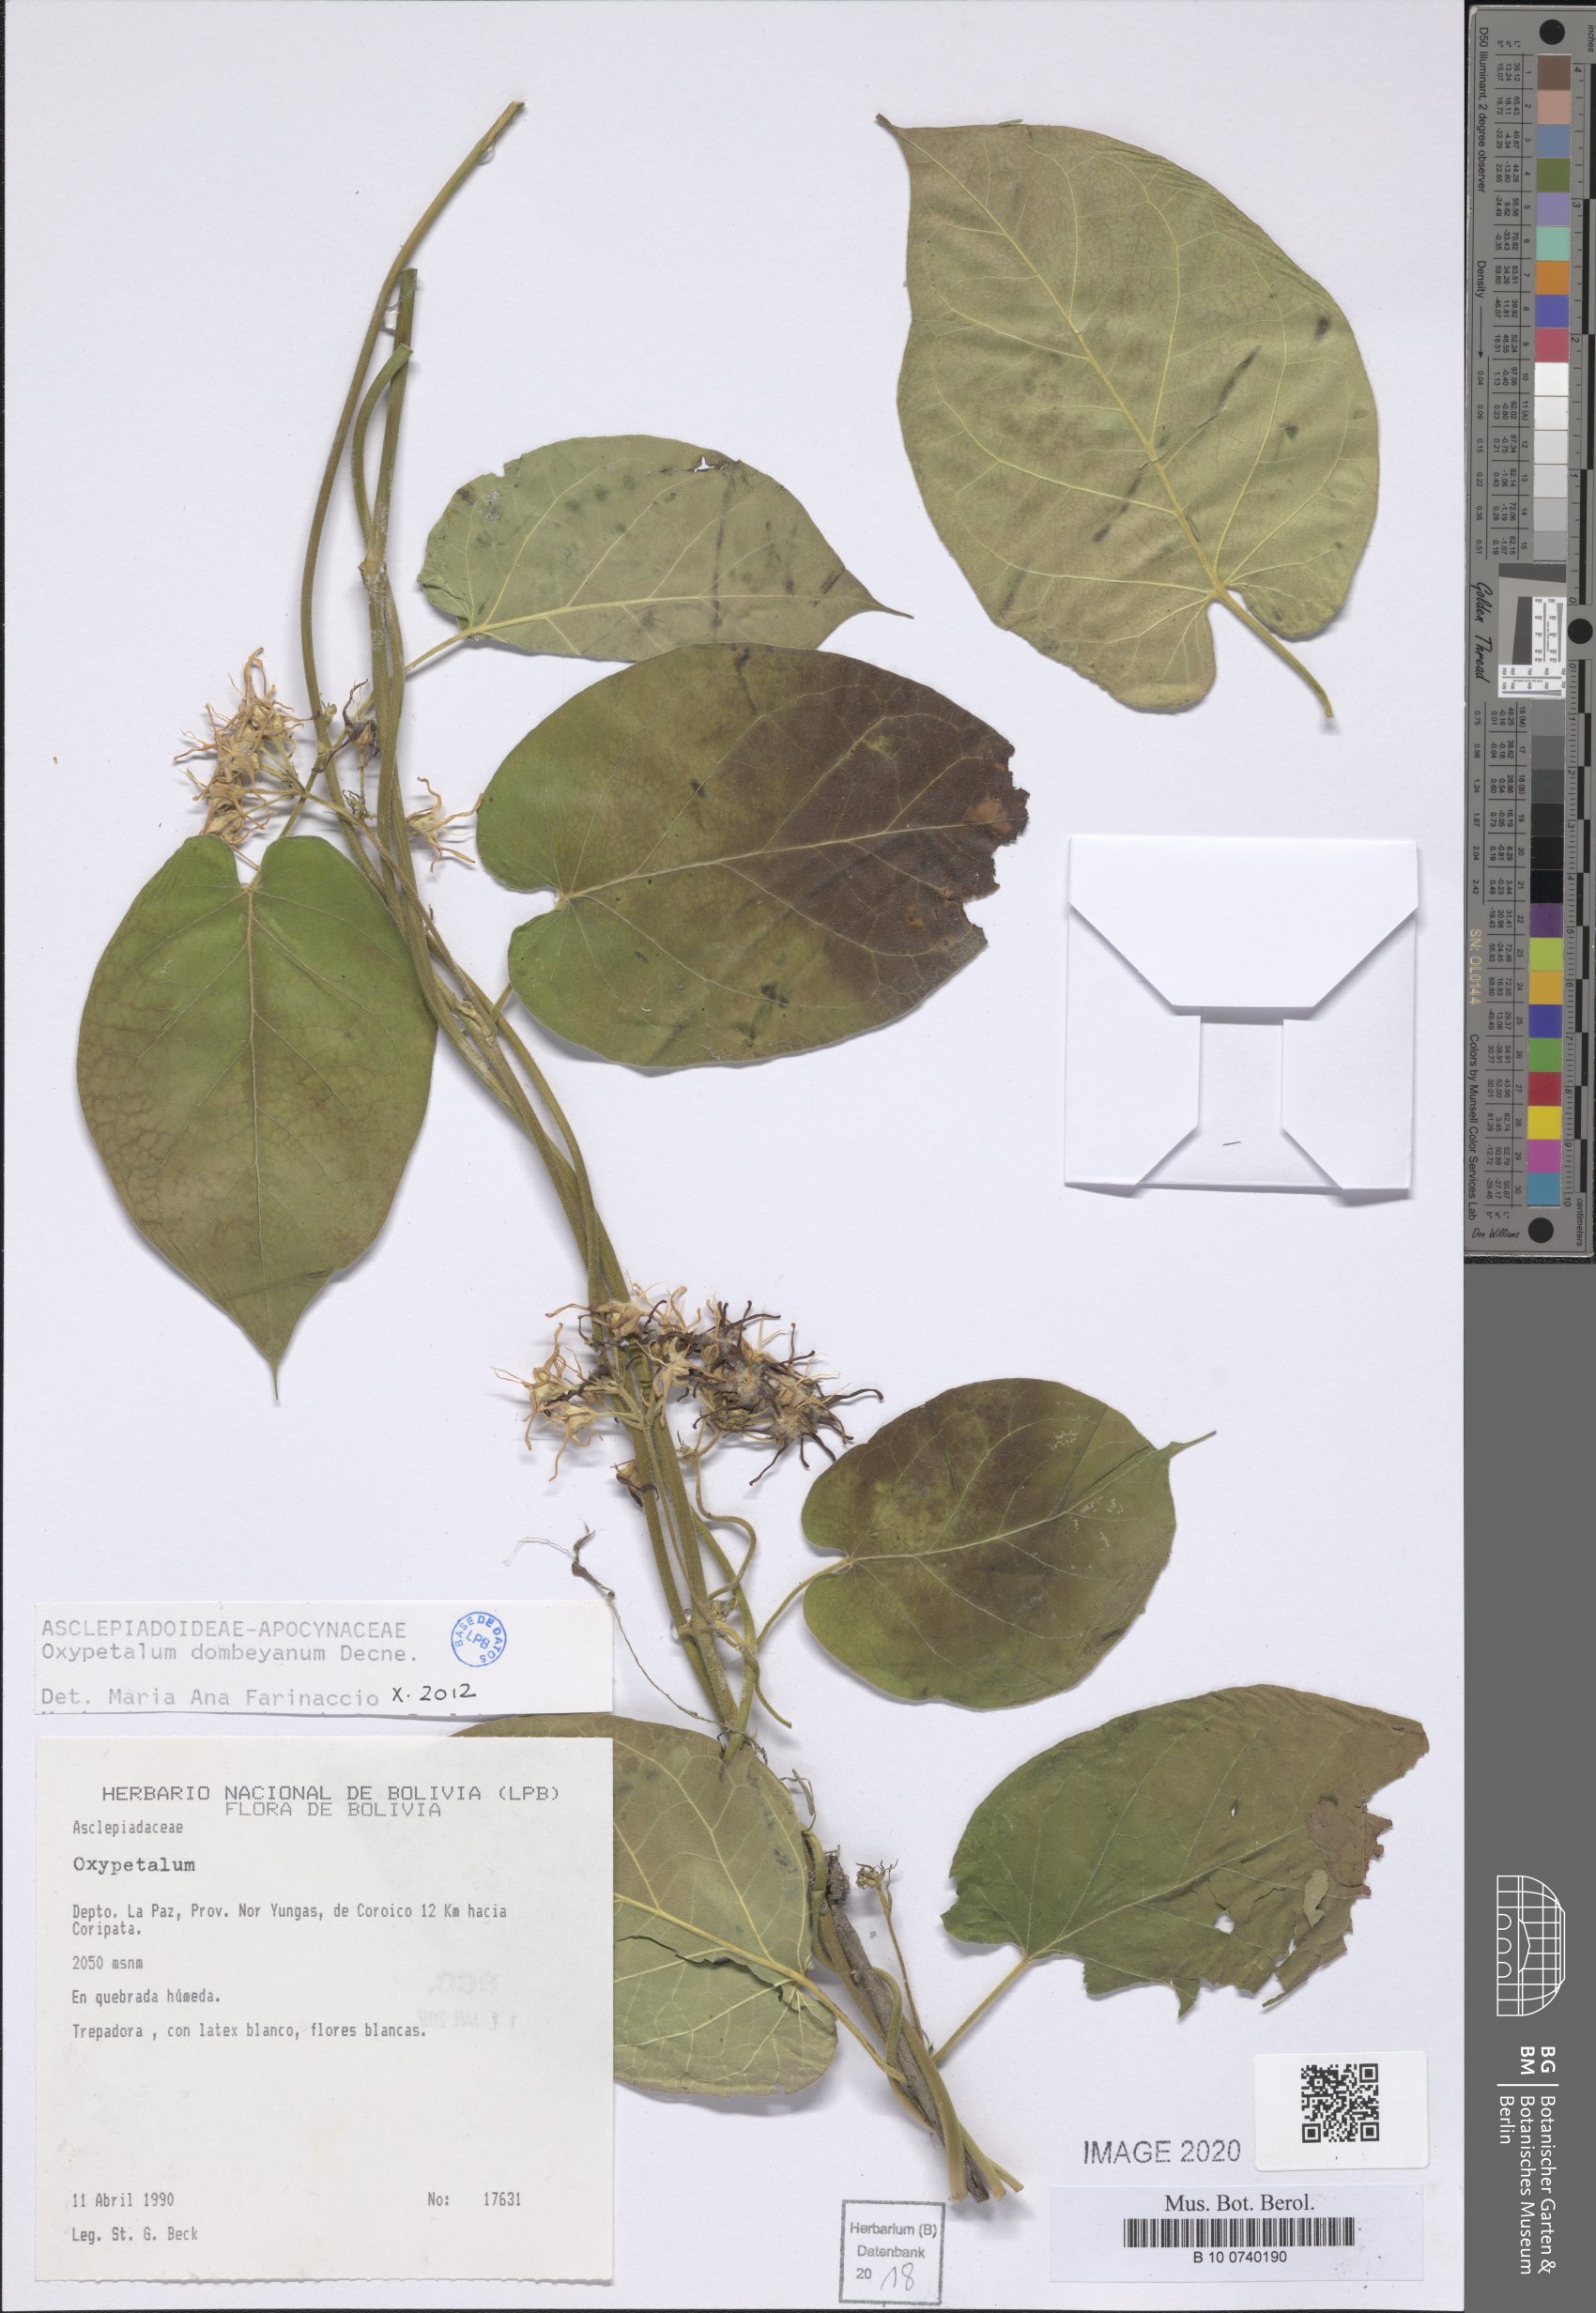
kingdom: Plantae
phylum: Tracheophyta
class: Magnoliopsida
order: Gentianales
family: Apocynaceae
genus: Oxypetalum
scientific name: Oxypetalum dombeyanum
